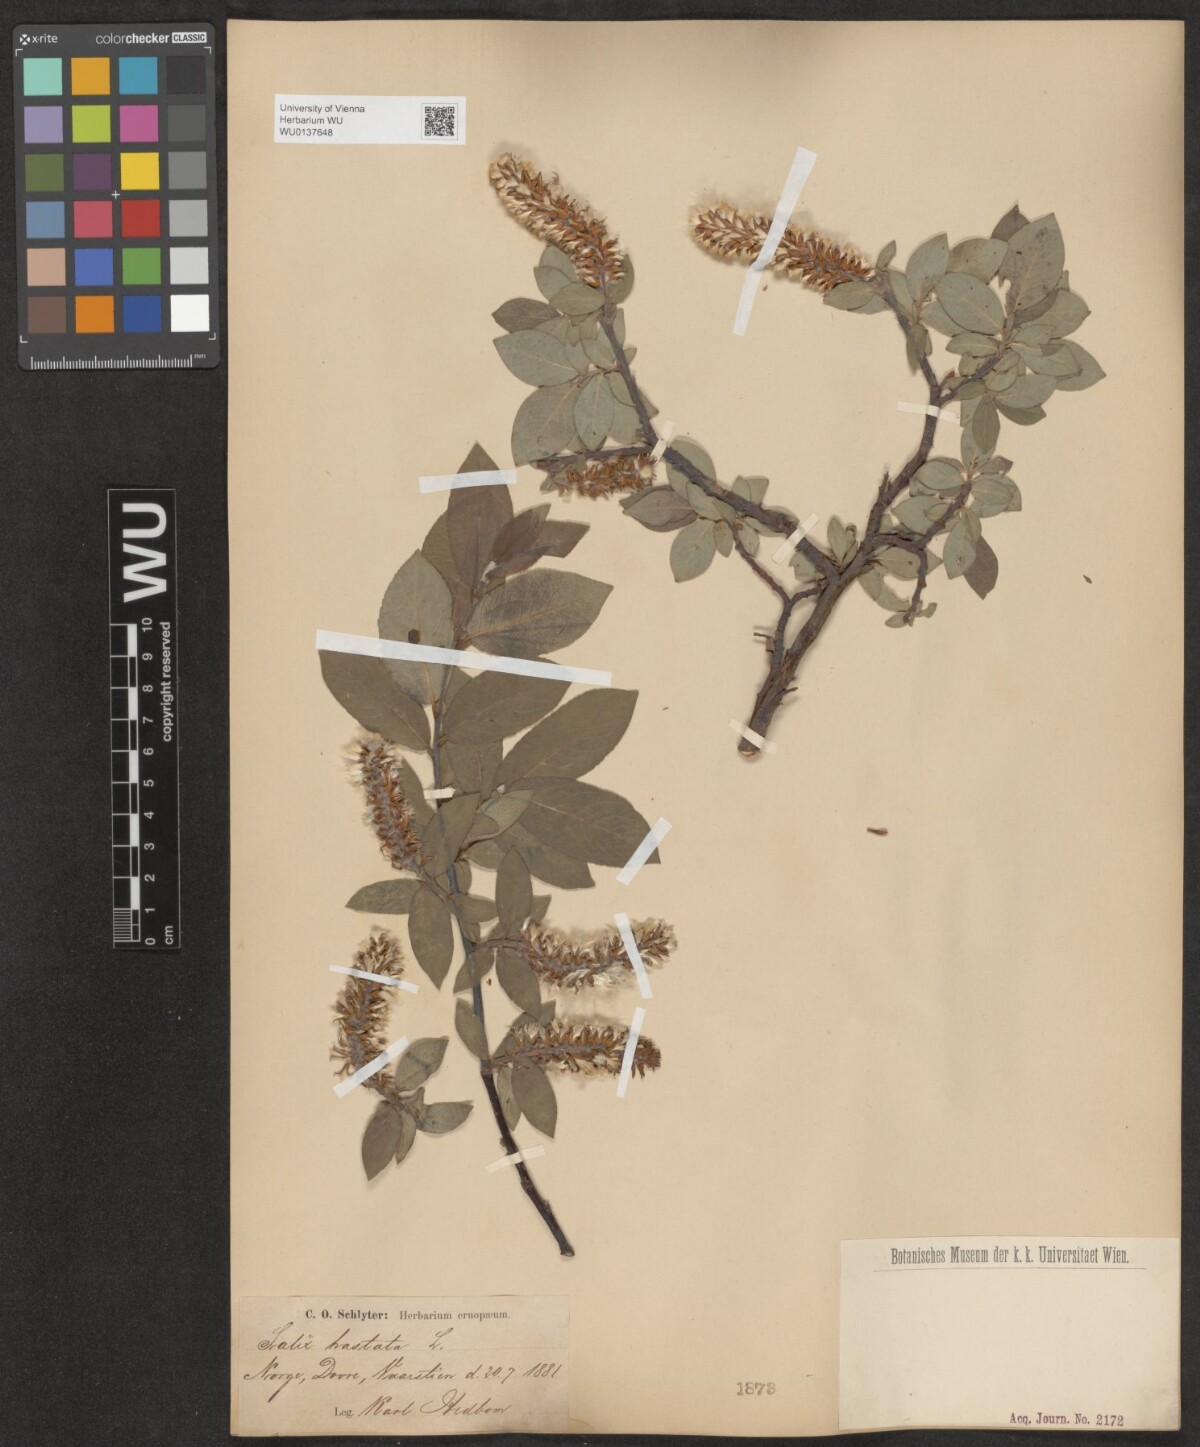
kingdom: Plantae
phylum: Tracheophyta
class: Magnoliopsida
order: Malpighiales
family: Salicaceae
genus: Salix
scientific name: Salix hastata
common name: Halberd willow
